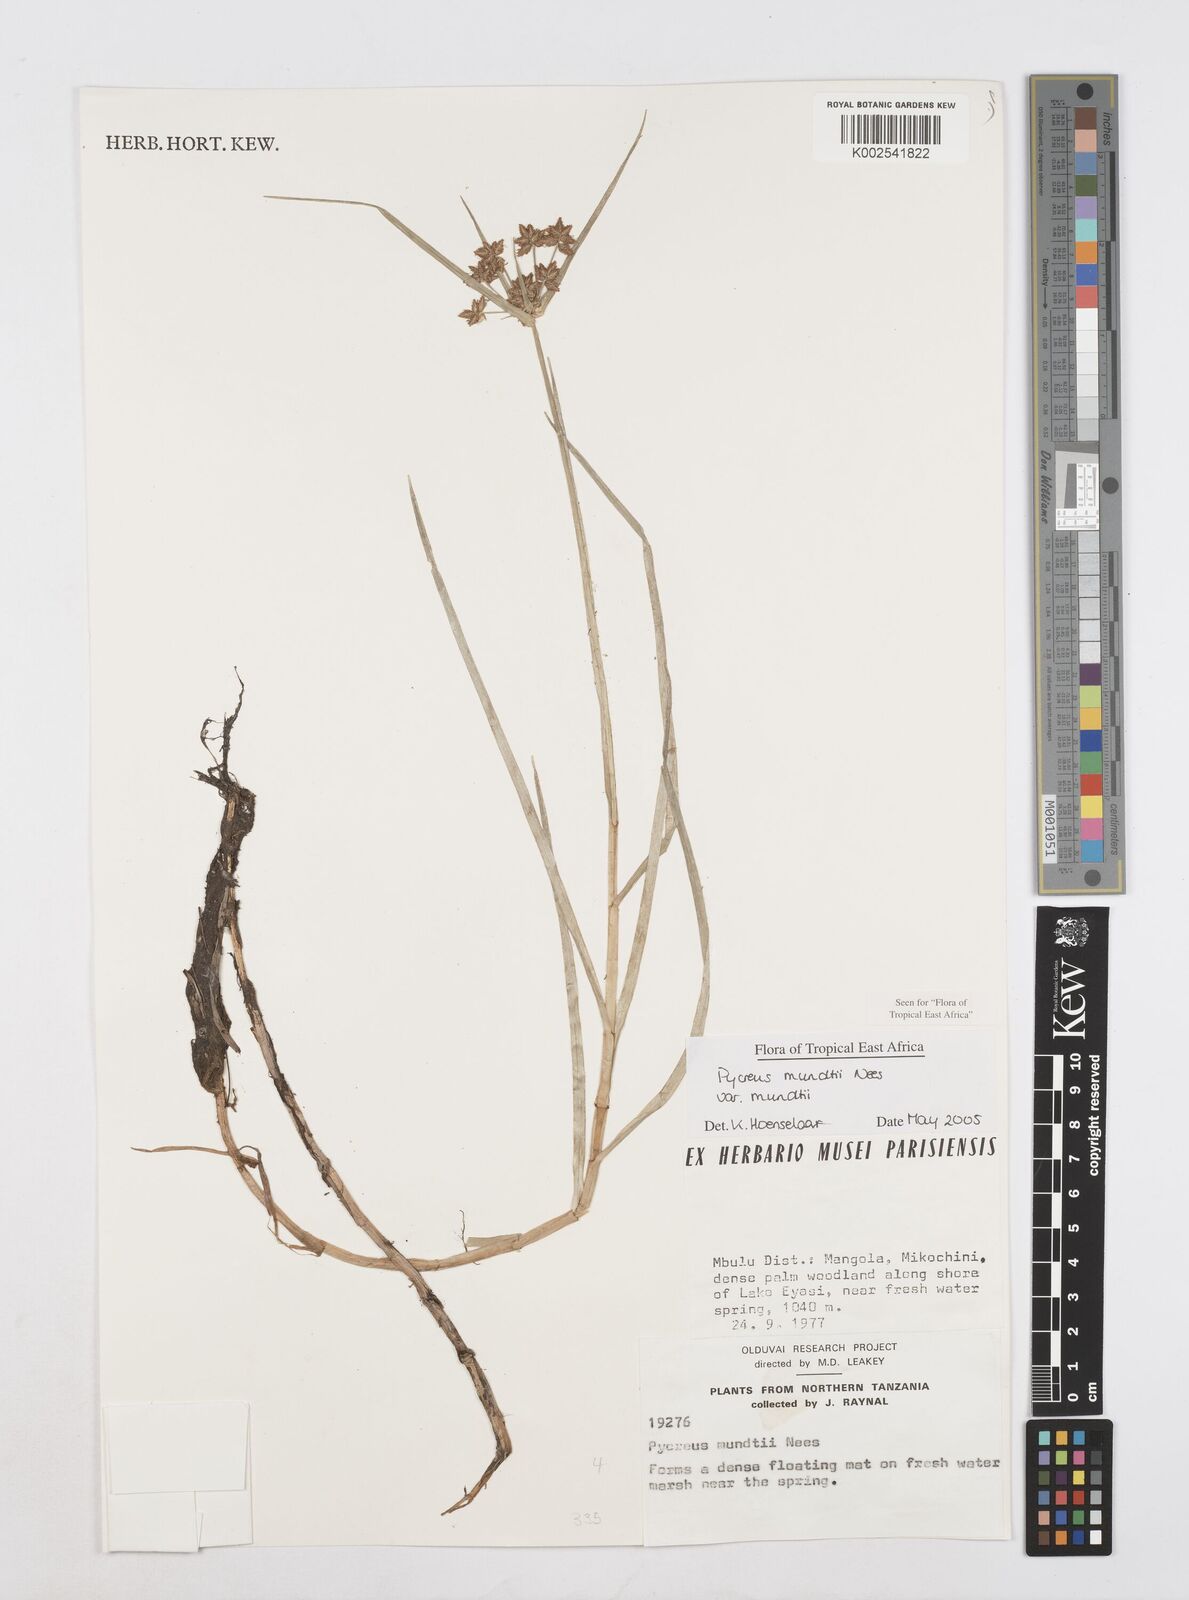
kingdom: Plantae
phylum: Tracheophyta
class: Liliopsida
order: Poales
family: Cyperaceae
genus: Cyperus
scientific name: Cyperus mundii
